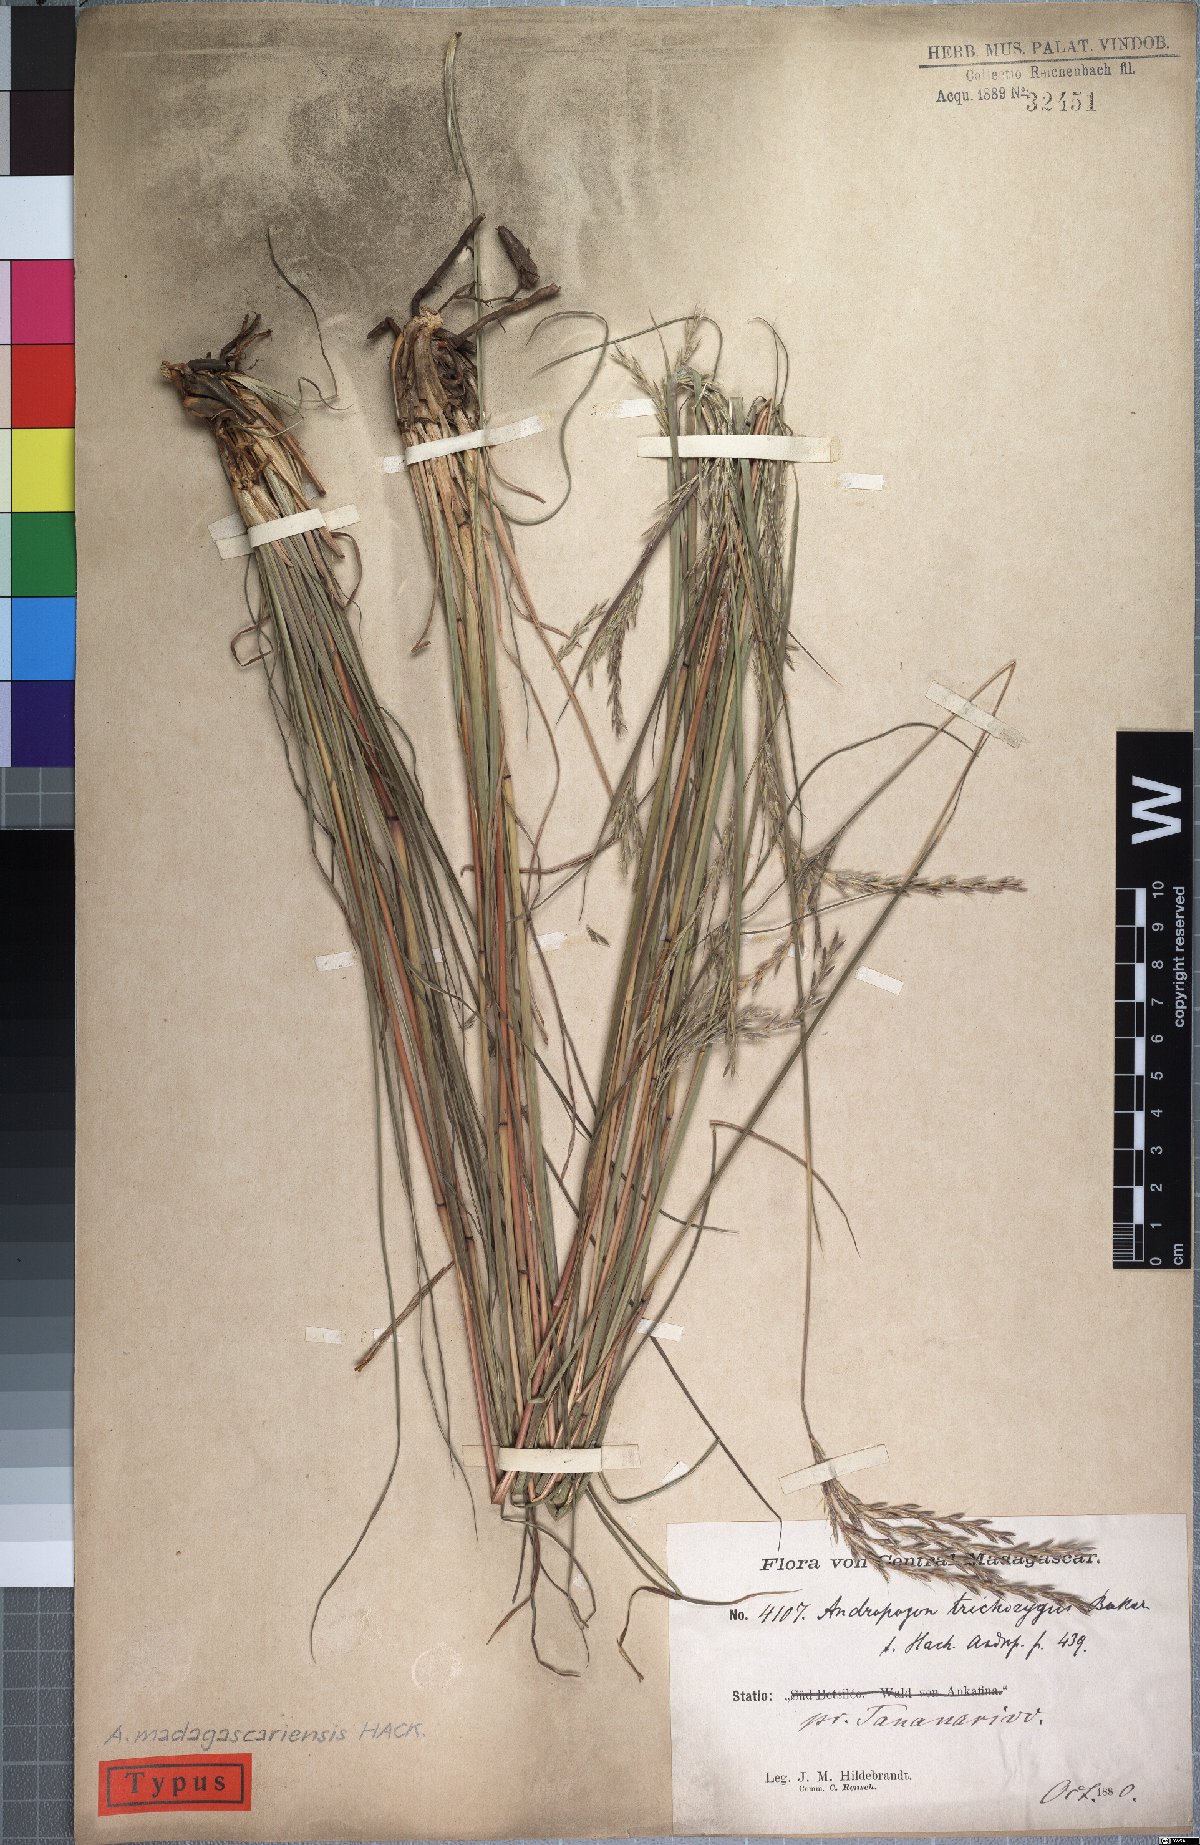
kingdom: Plantae
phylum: Tracheophyta
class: Liliopsida
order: Poales
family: Poaceae
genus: Andropogon
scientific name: Andropogon trichozygus
